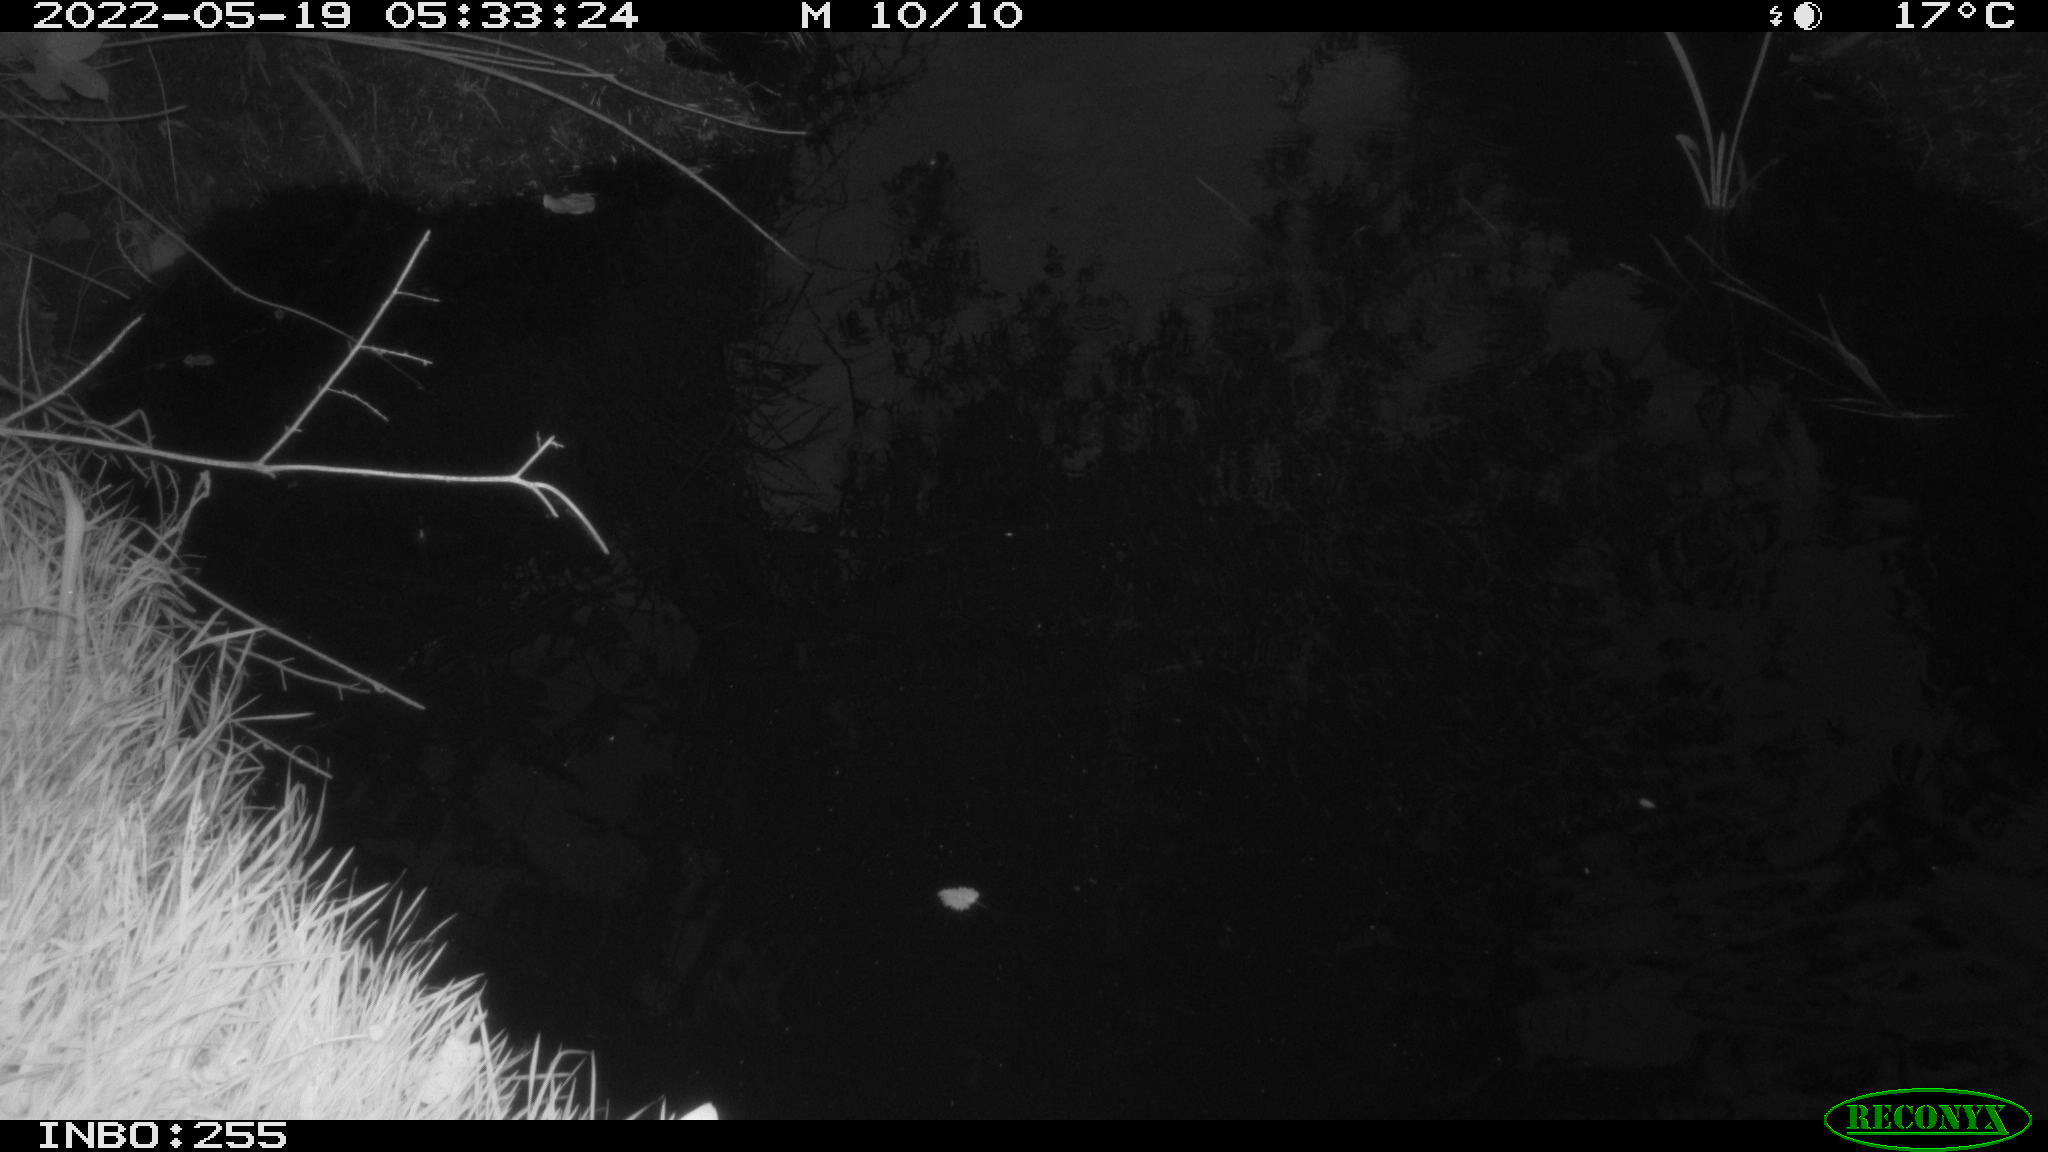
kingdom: Animalia
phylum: Chordata
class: Aves
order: Anseriformes
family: Anatidae
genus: Anas
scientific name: Anas platyrhynchos
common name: Mallard
